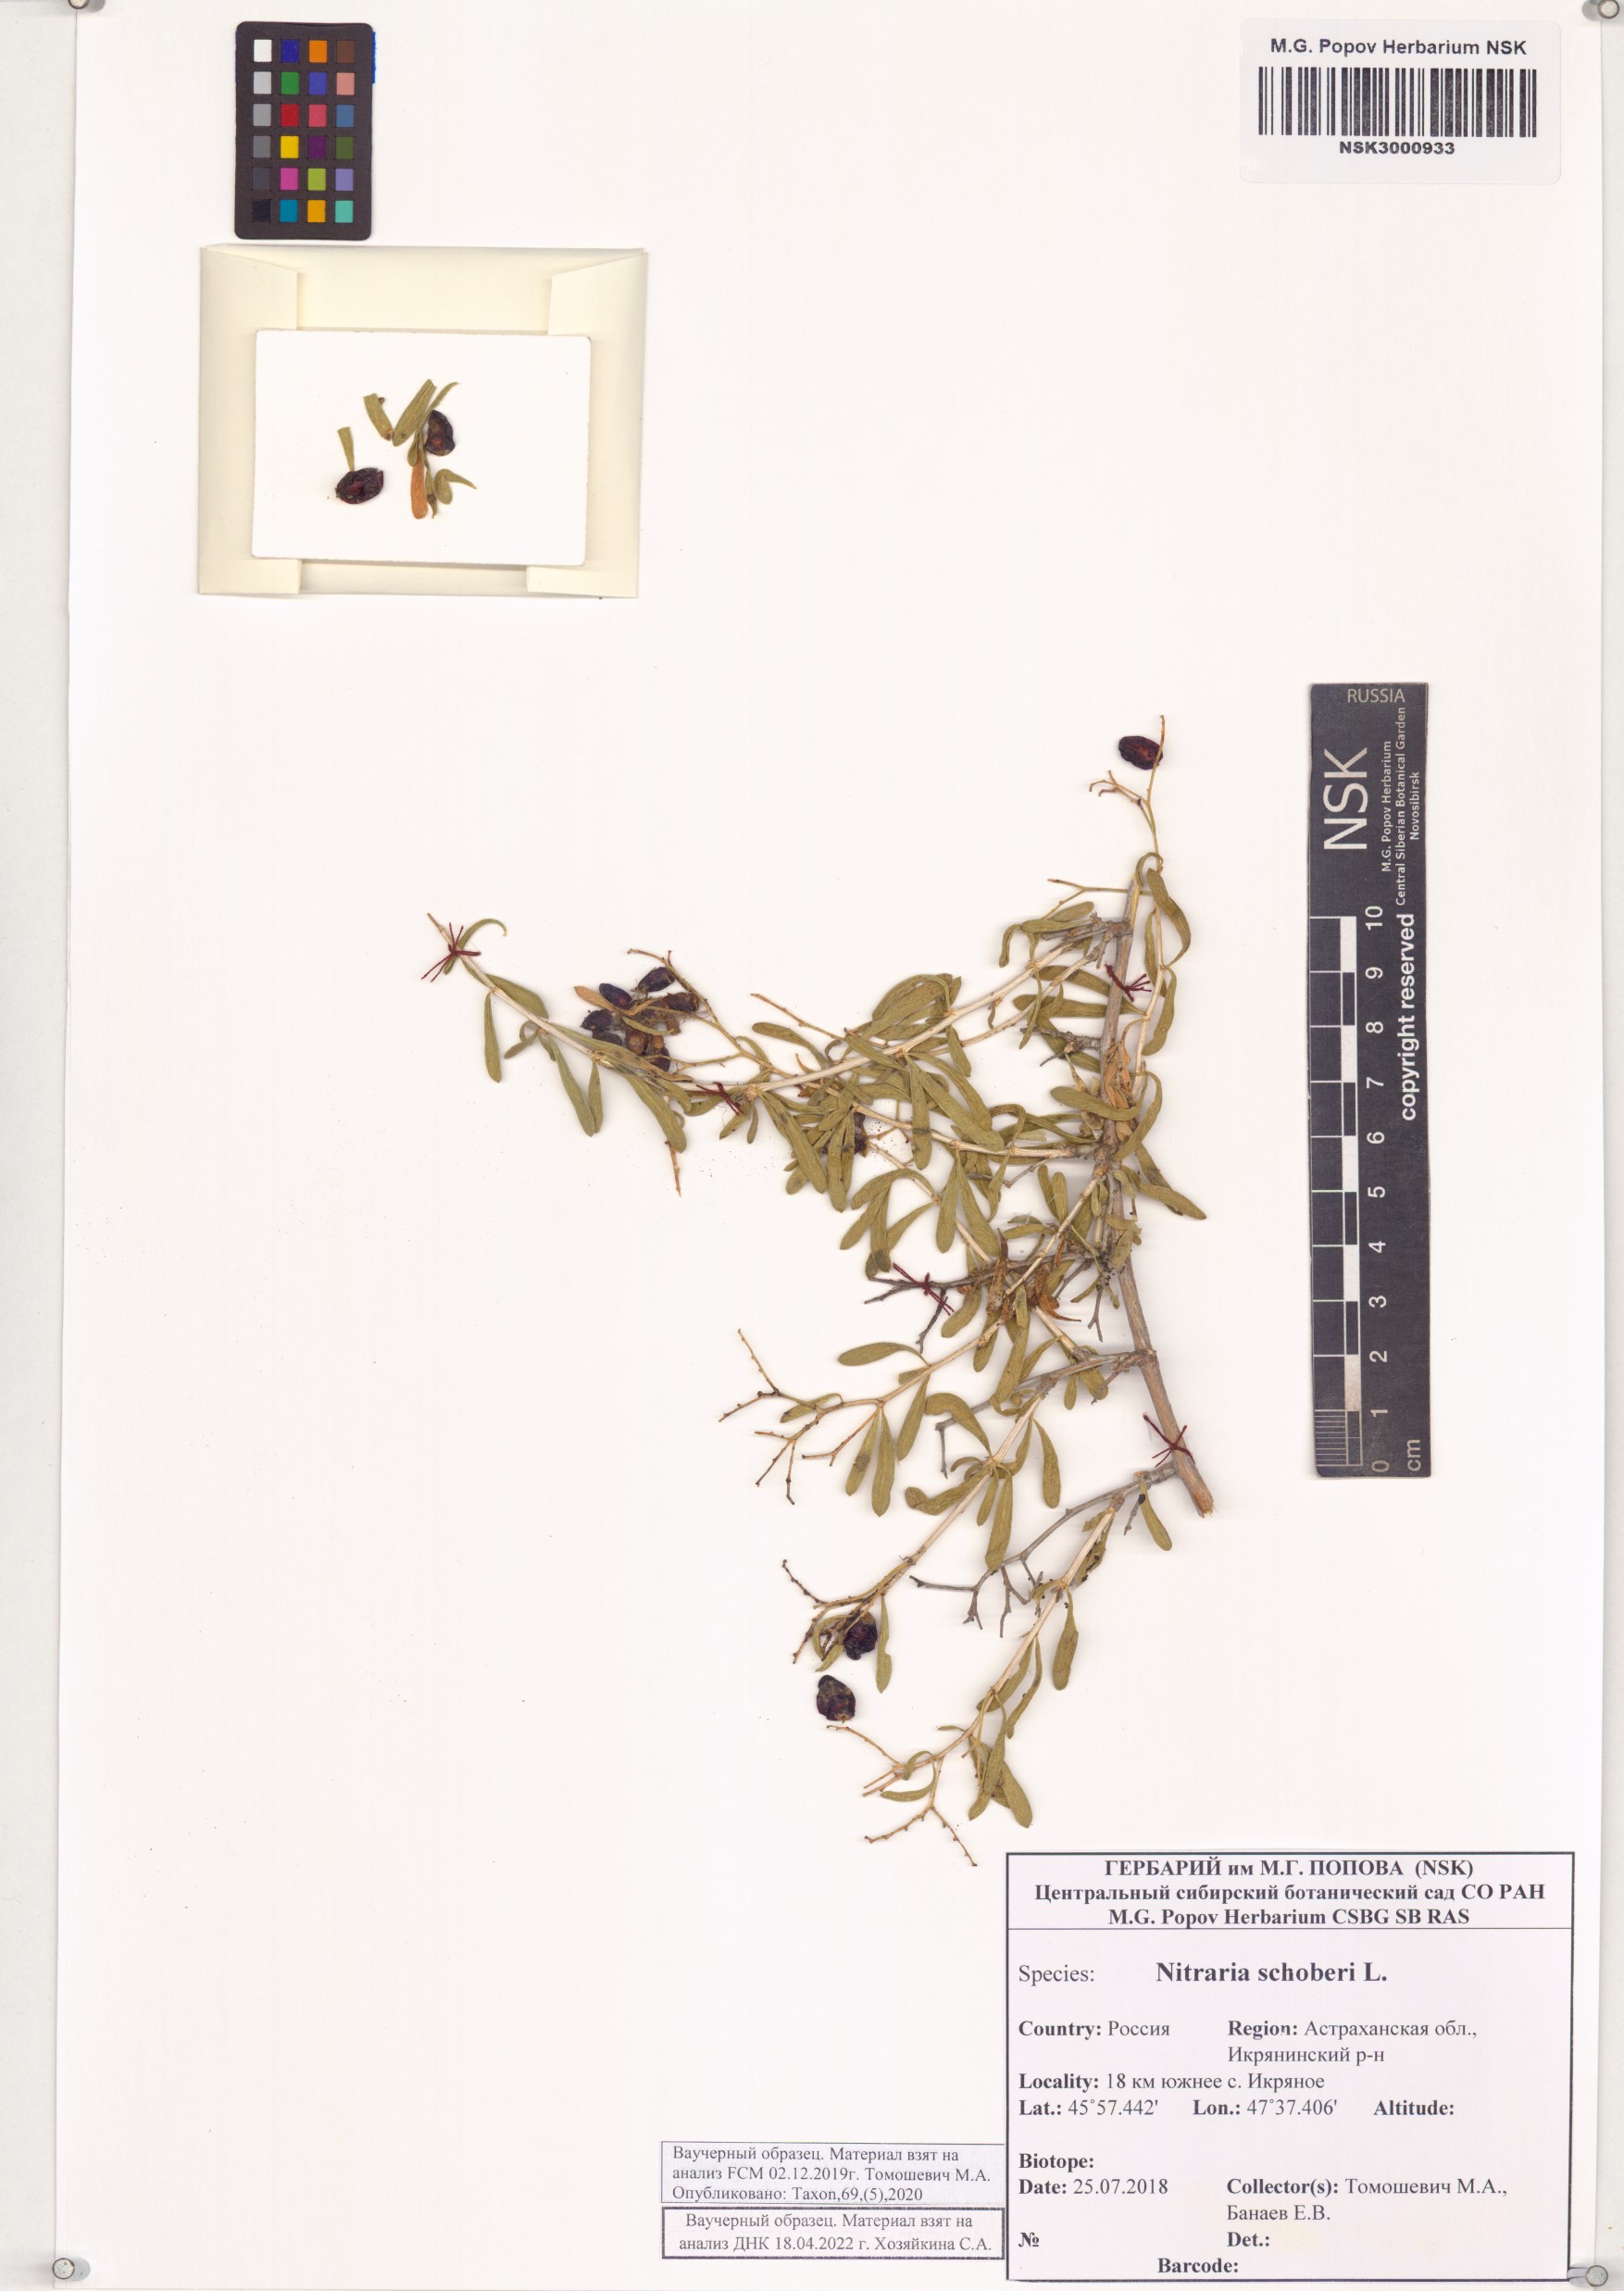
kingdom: Plantae
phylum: Tracheophyta
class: Magnoliopsida
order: Sapindales
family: Nitrariaceae
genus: Nitraria
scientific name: Nitraria schoberi
